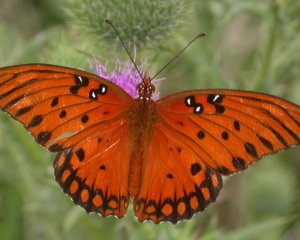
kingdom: Animalia
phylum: Arthropoda
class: Insecta
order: Lepidoptera
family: Nymphalidae
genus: Dione
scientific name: Dione vanillae
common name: Gulf Fritillary
